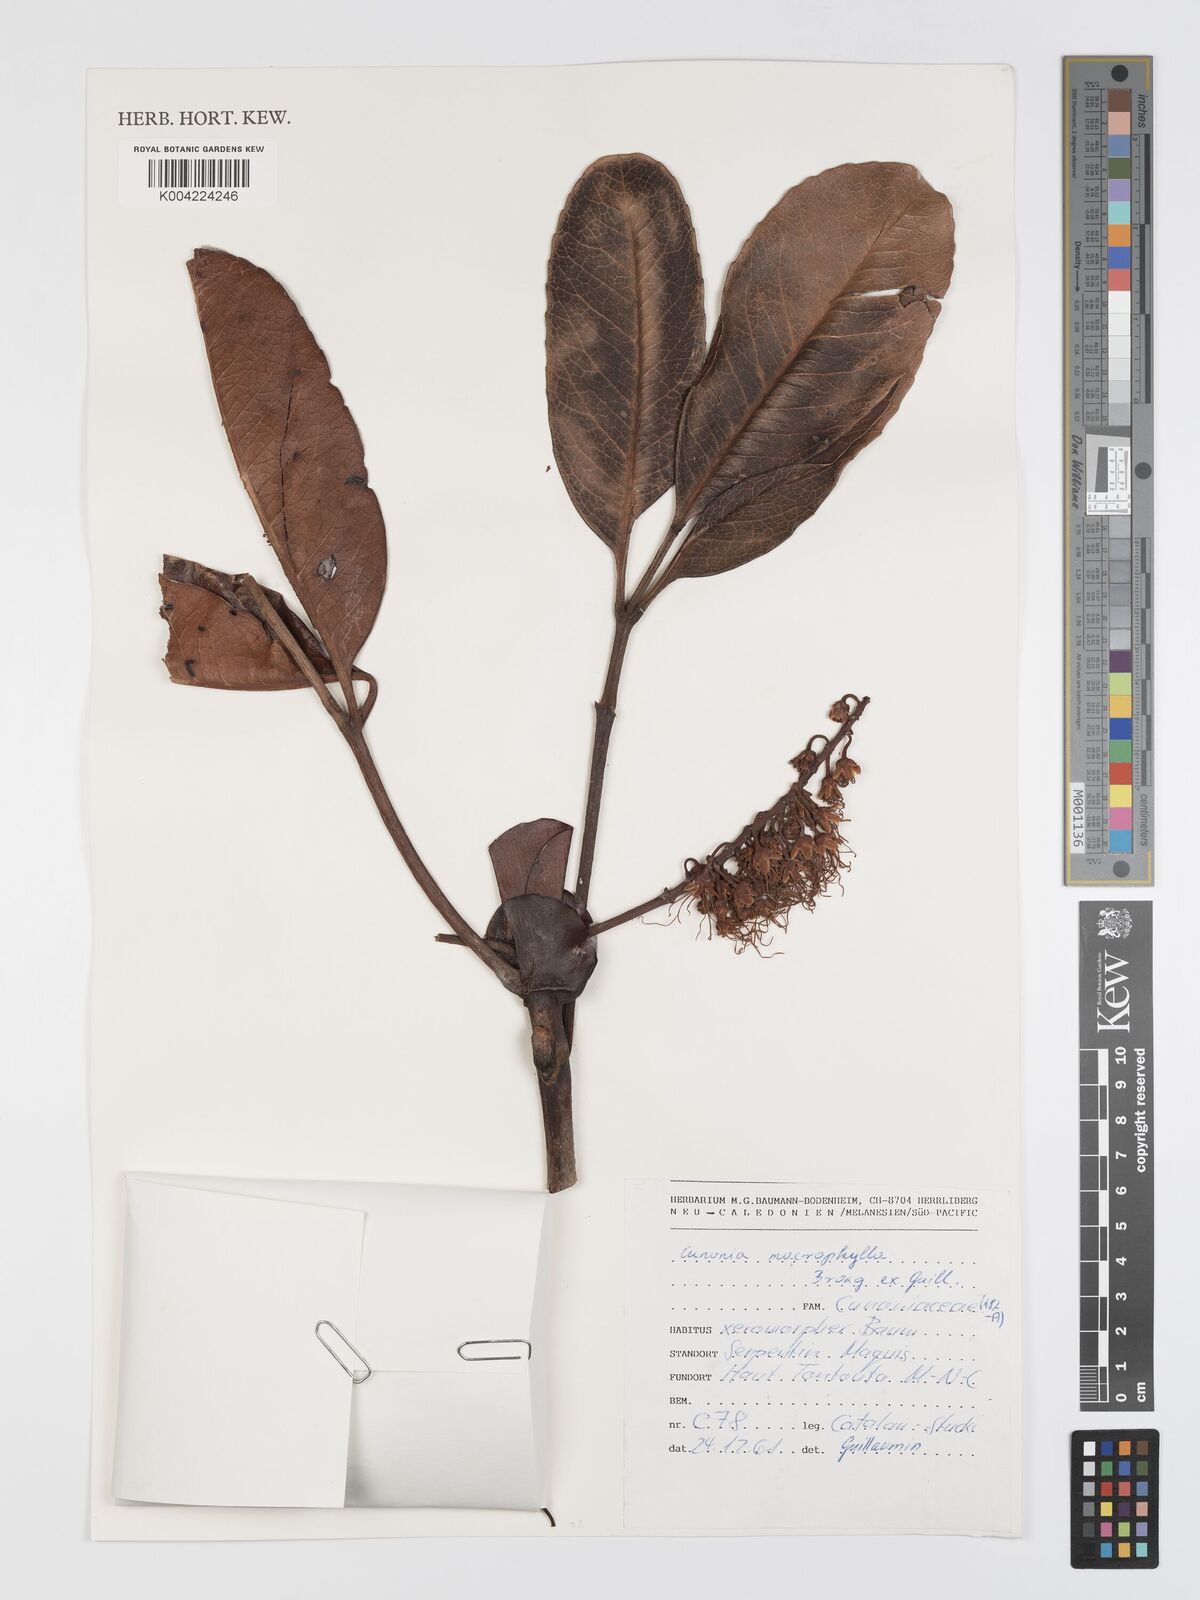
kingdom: Plantae
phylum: Tracheophyta
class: Magnoliopsida
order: Oxalidales
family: Cunoniaceae
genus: Cunonia
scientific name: Cunonia macrophylla
